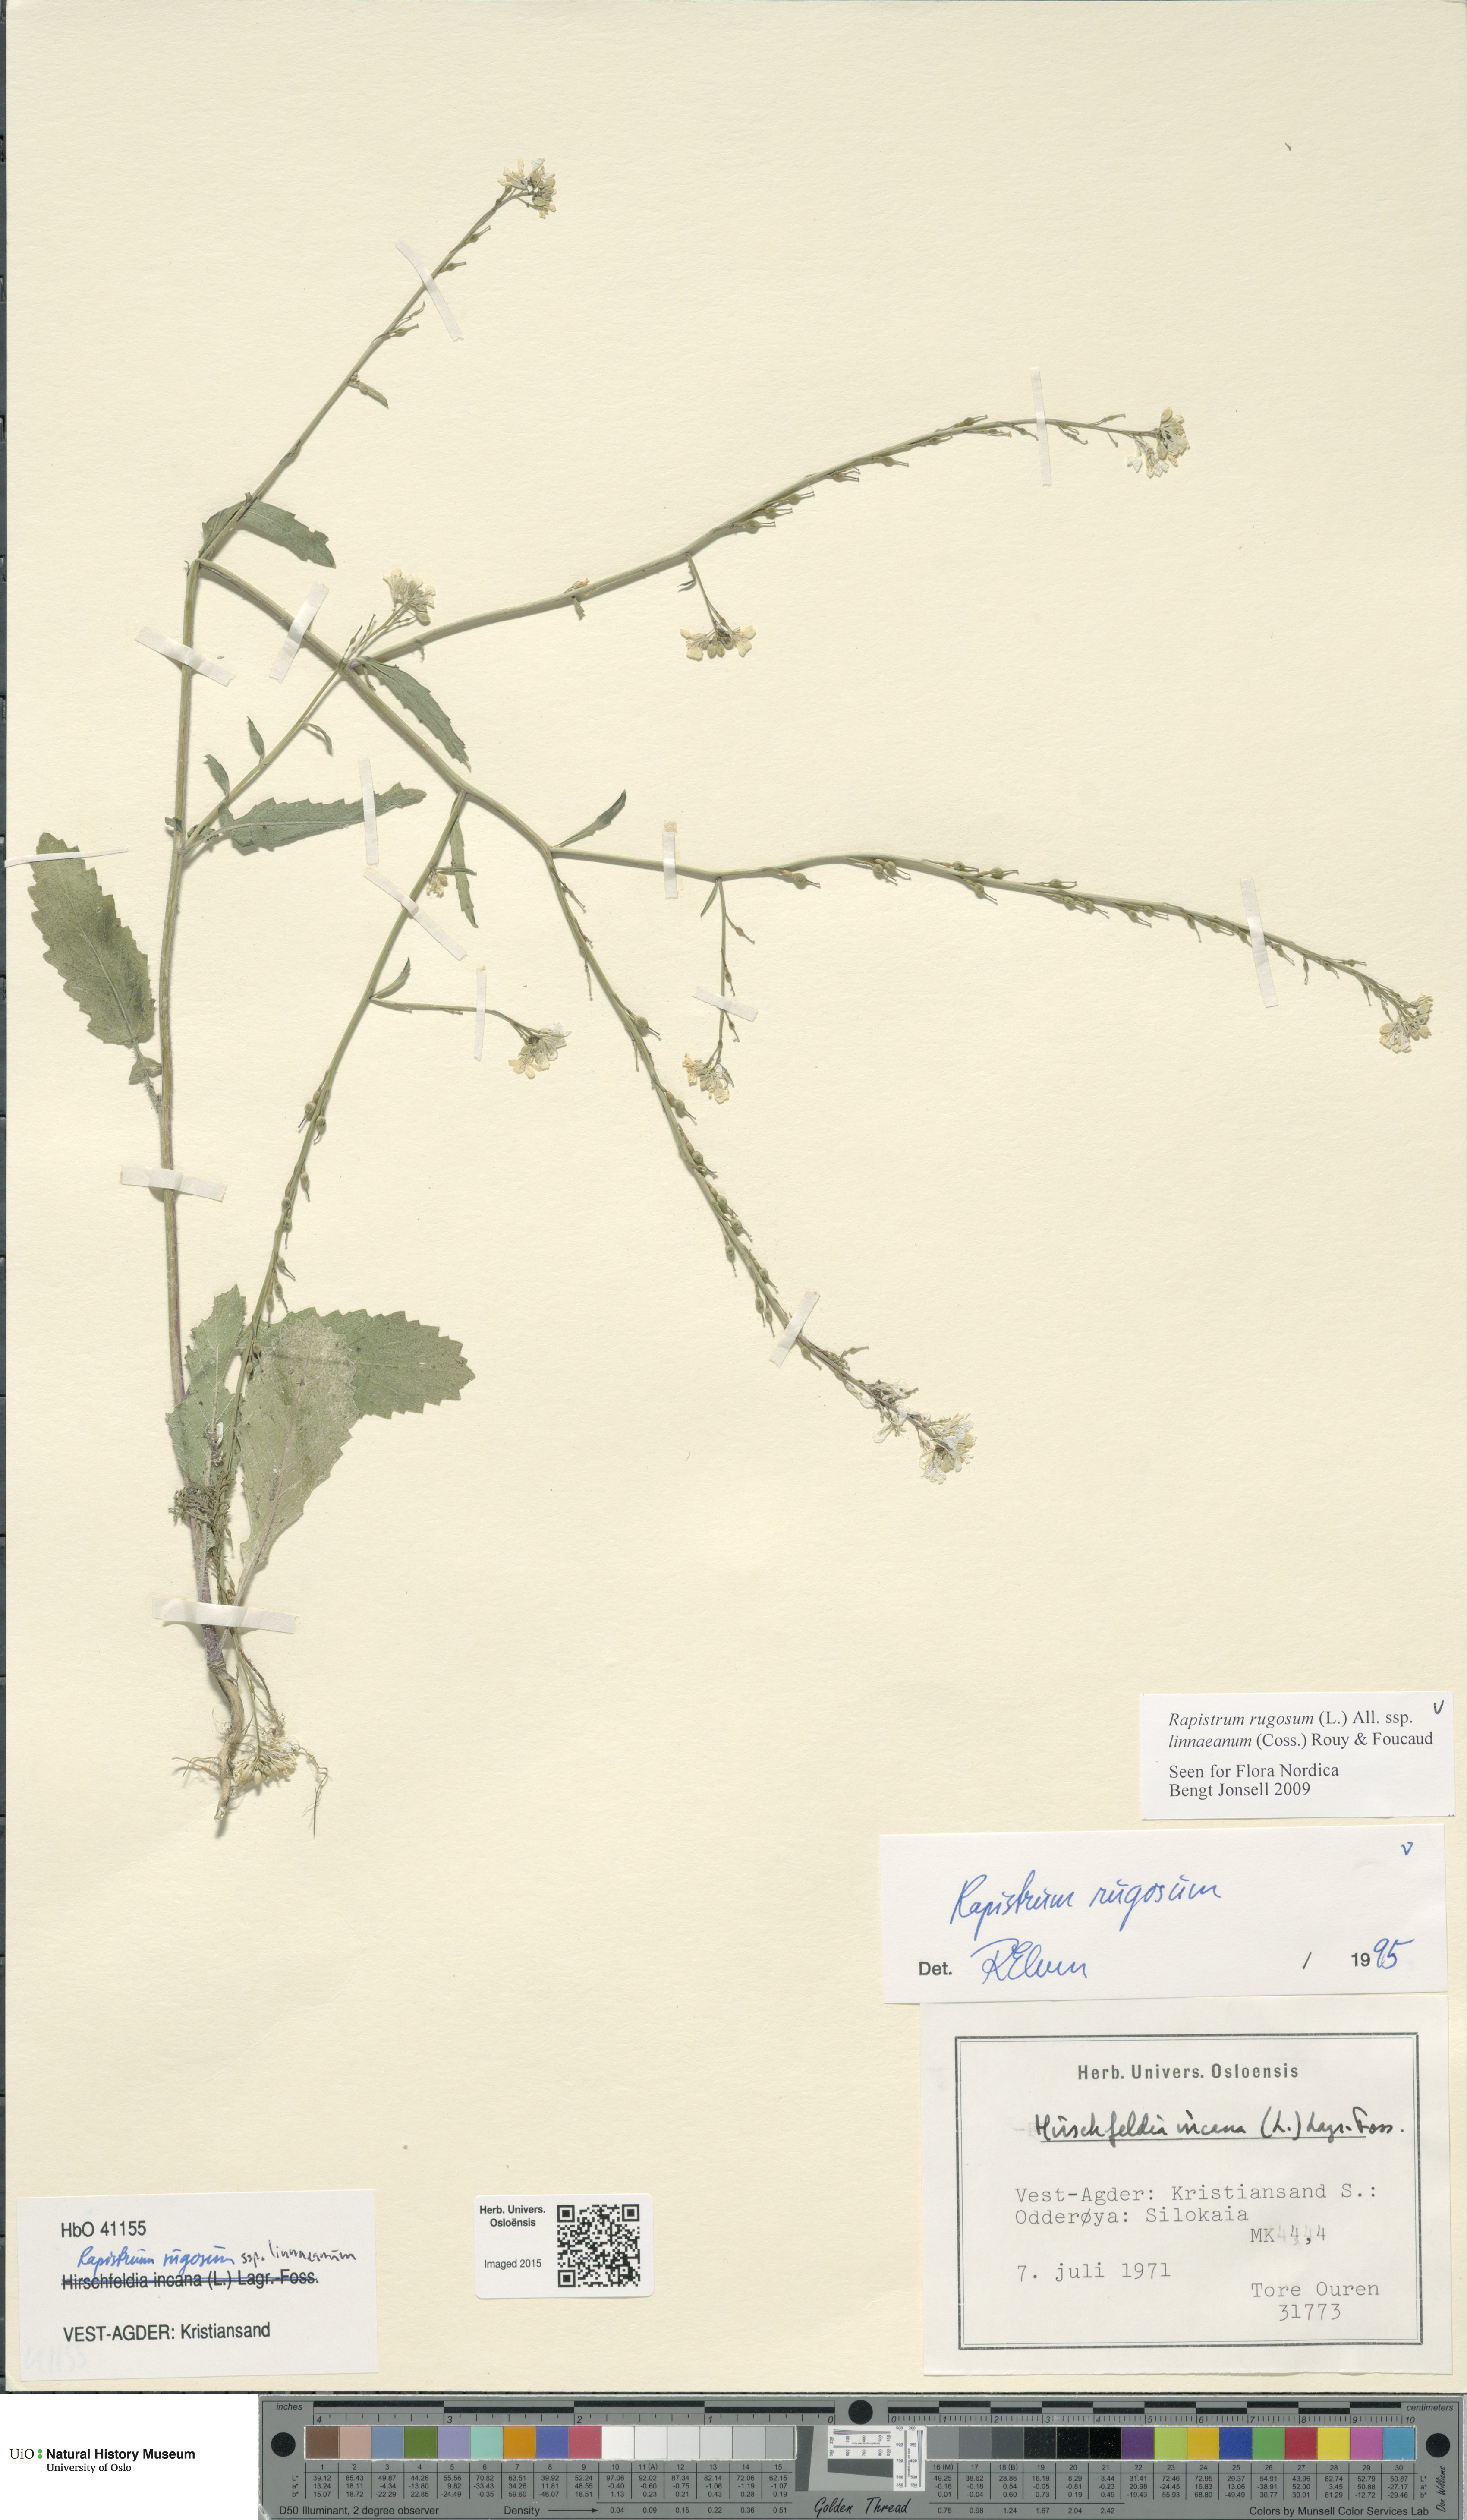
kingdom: Plantae
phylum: Tracheophyta
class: Magnoliopsida
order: Brassicales
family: Brassicaceae
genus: Rapistrum
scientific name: Rapistrum rugosum
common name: Annual bastardcabbage
